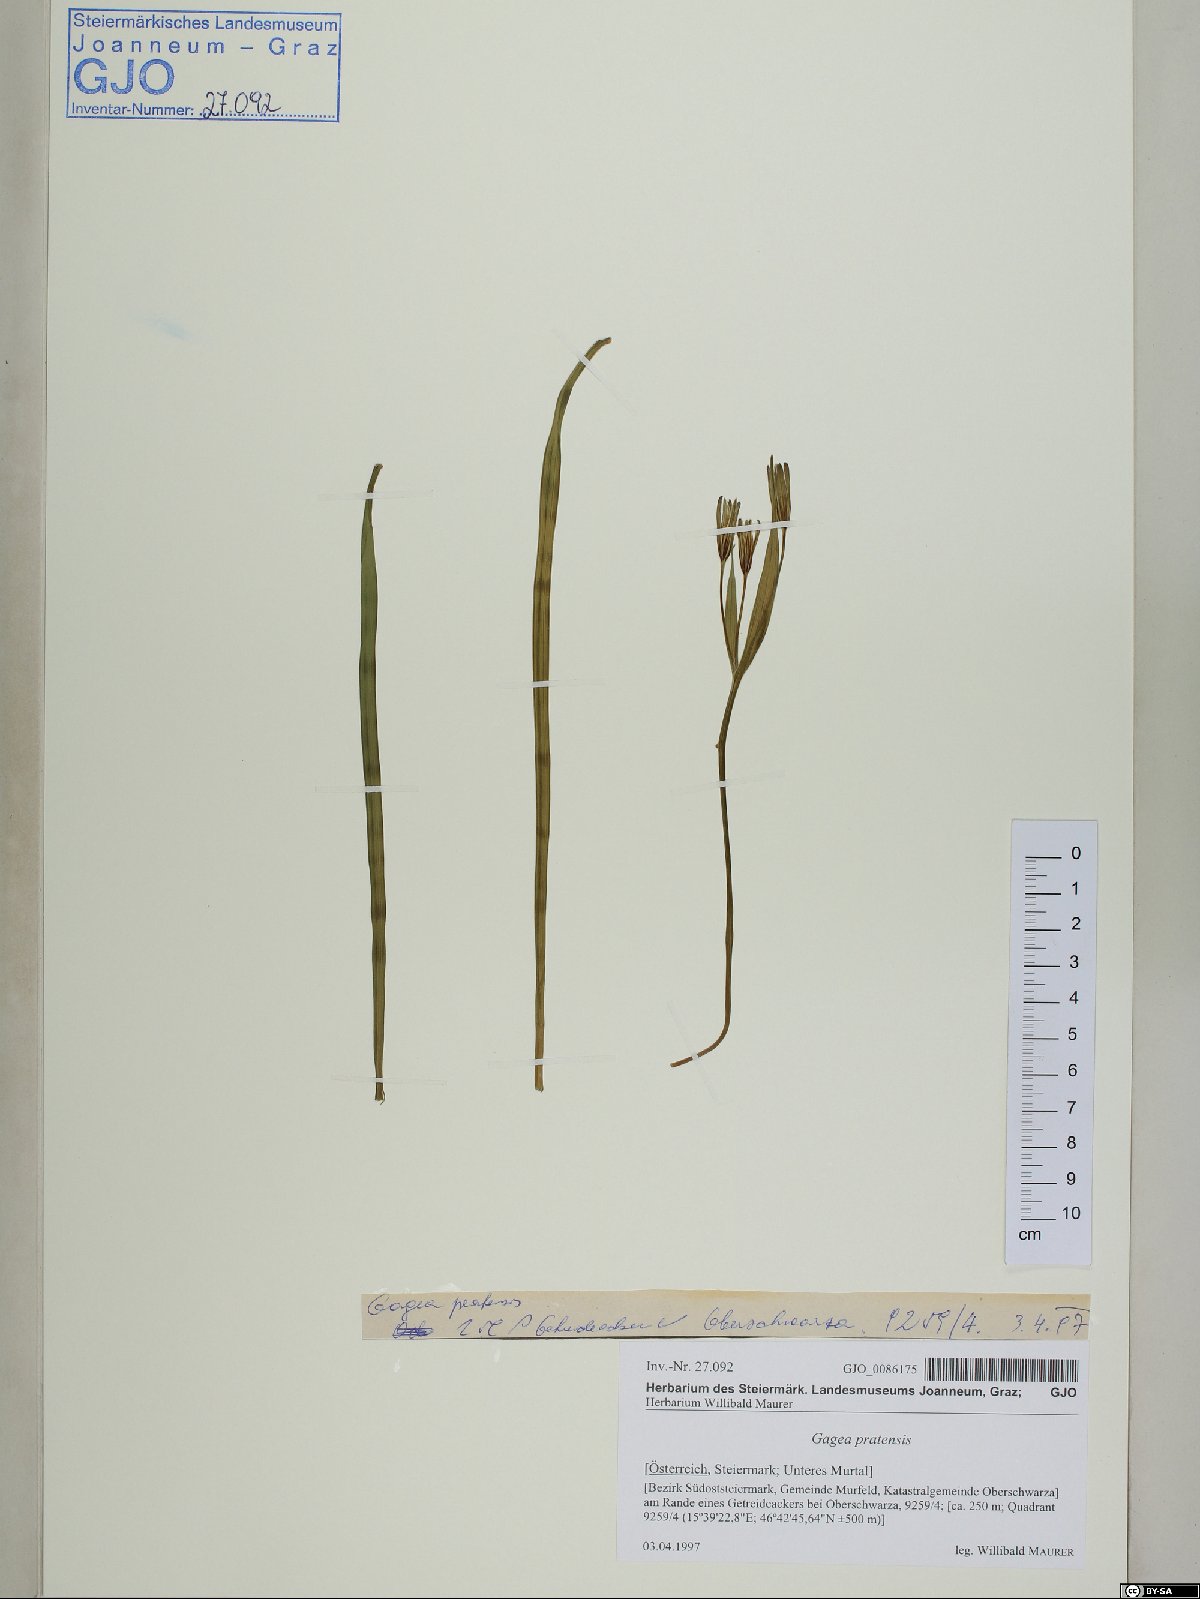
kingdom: Plantae
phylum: Tracheophyta
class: Liliopsida
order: Liliales
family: Liliaceae
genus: Gagea
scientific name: Gagea pratensis
